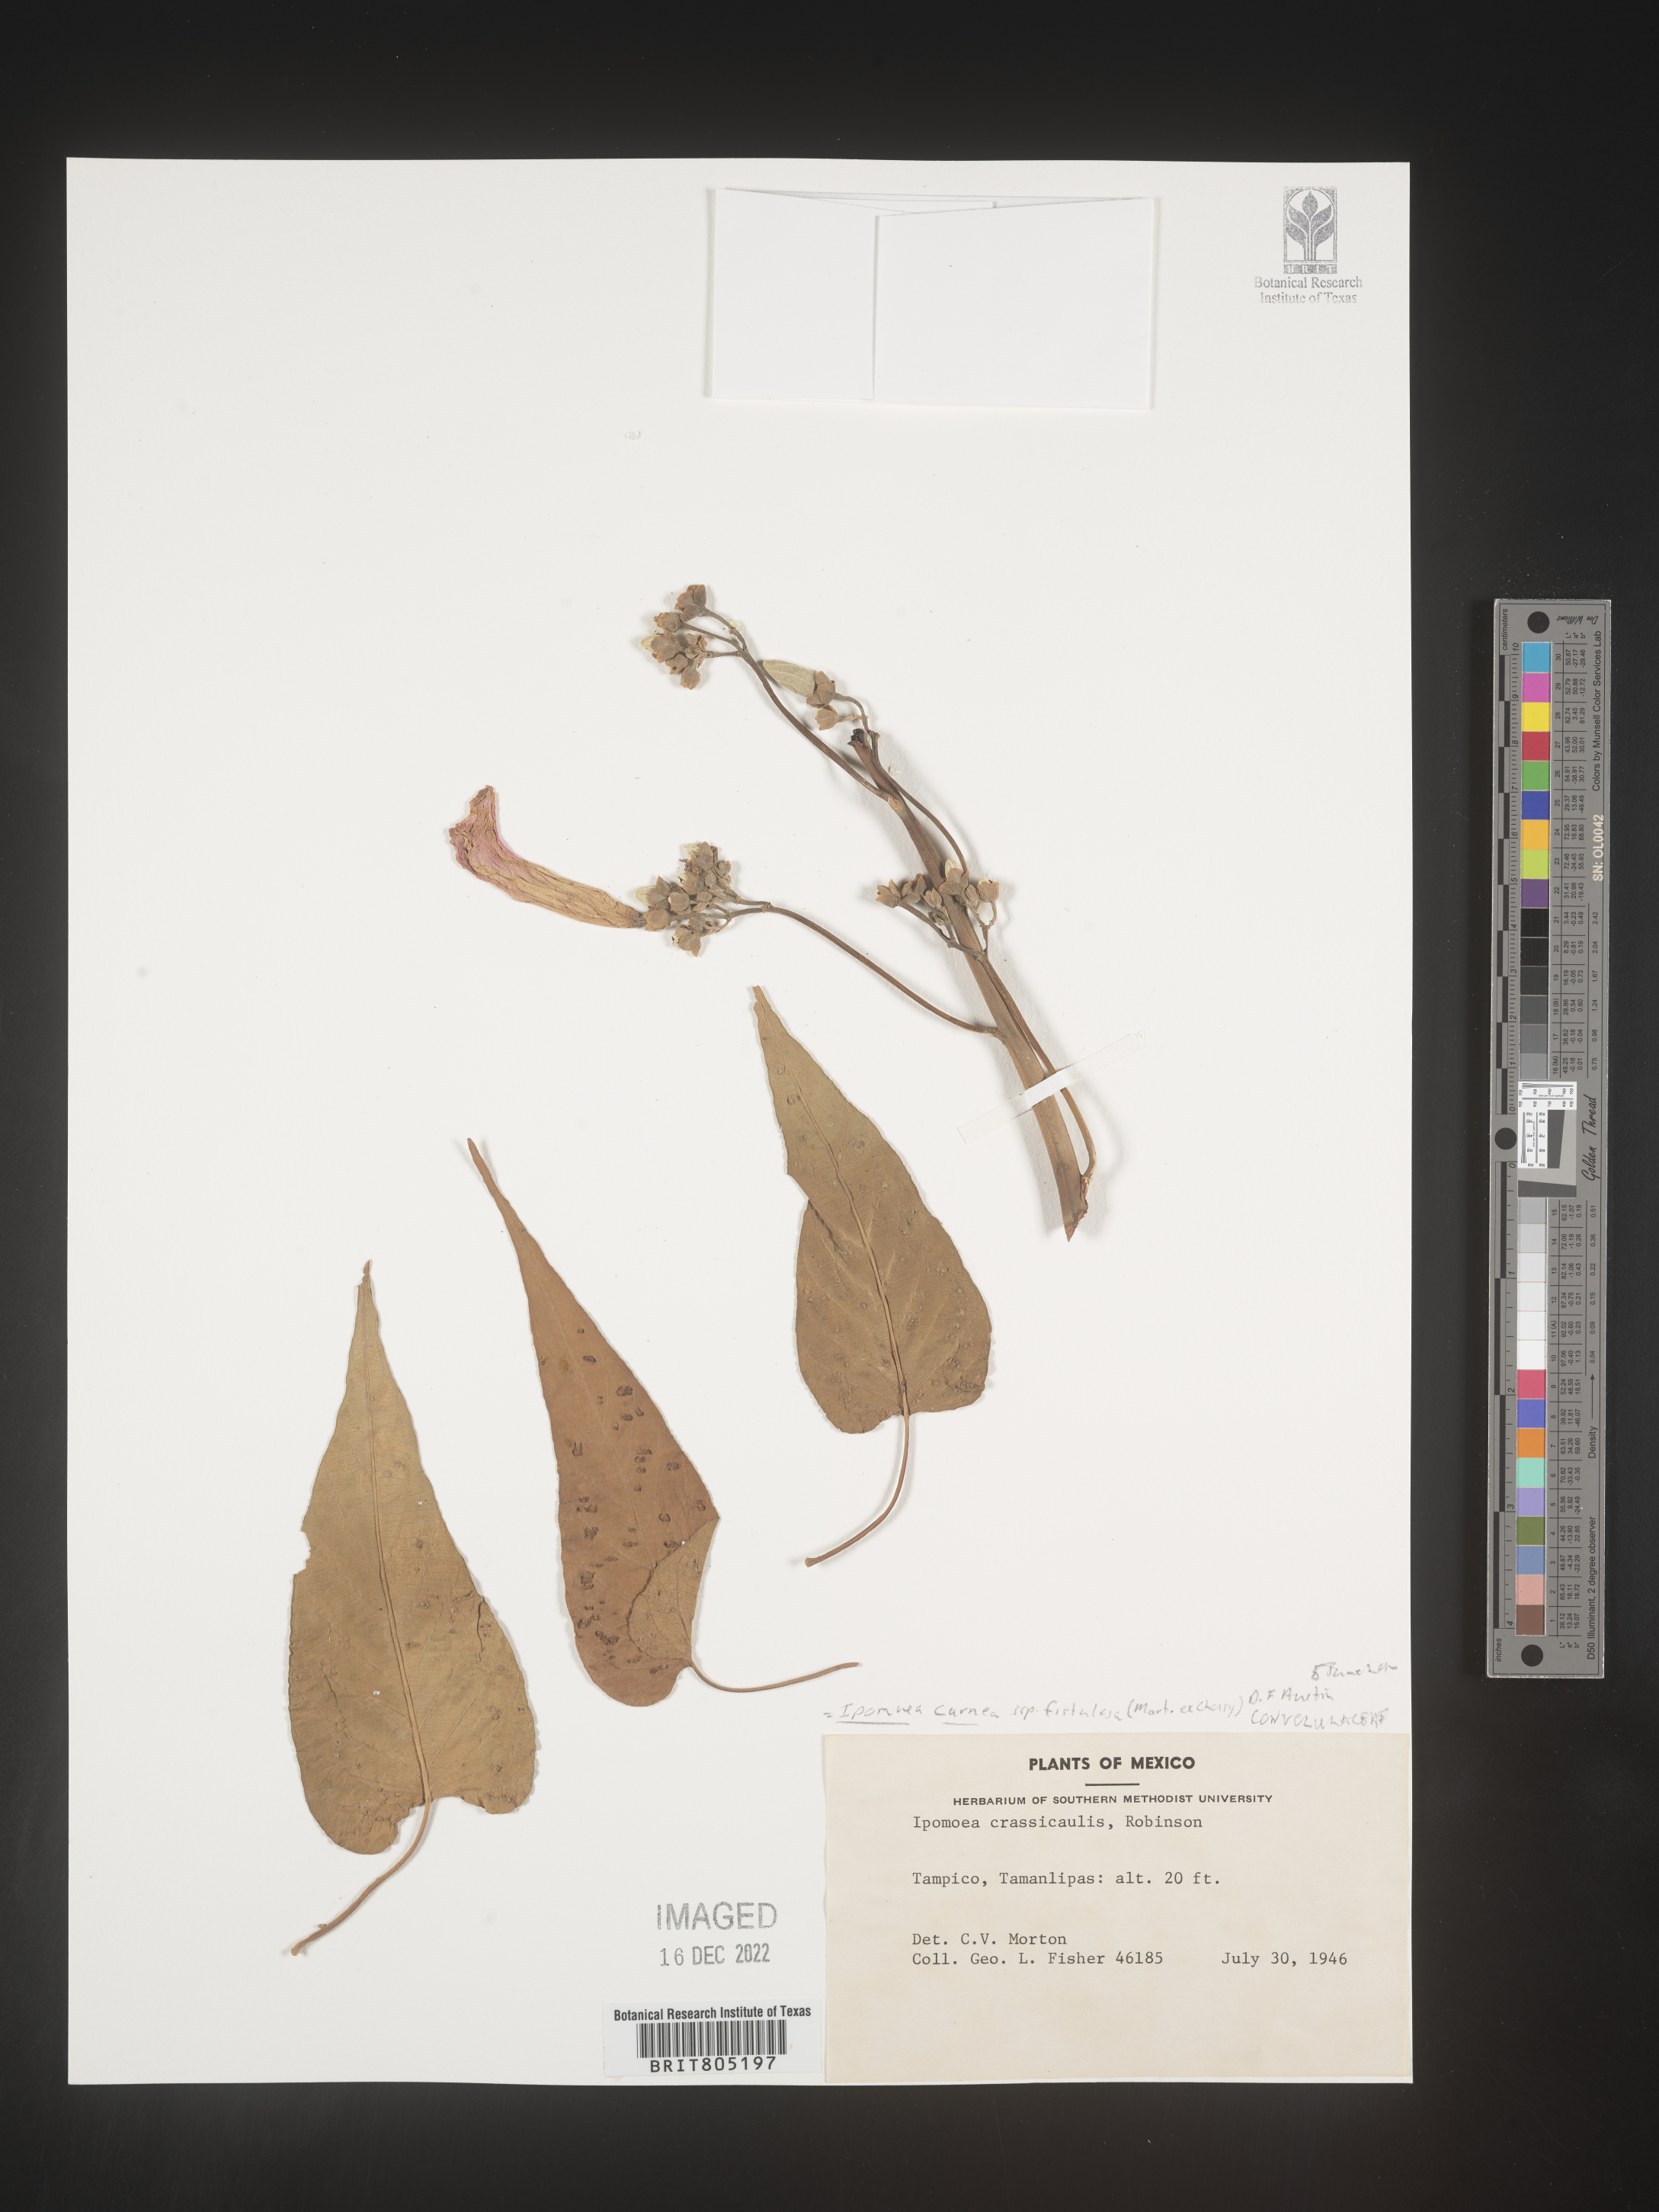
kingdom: Plantae
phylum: Tracheophyta
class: Magnoliopsida
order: Solanales
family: Convolvulaceae
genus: Ipomoea
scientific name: Ipomoea
